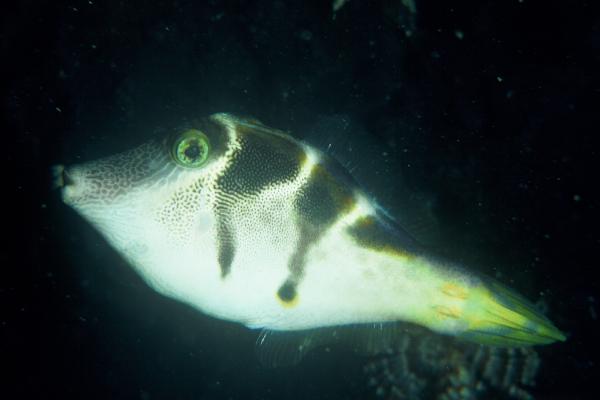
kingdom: Animalia
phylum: Chordata
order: Tetraodontiformes
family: Monacanthidae
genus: Cantherhines
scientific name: Cantherhines pardalis
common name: Honeycomb filefish
